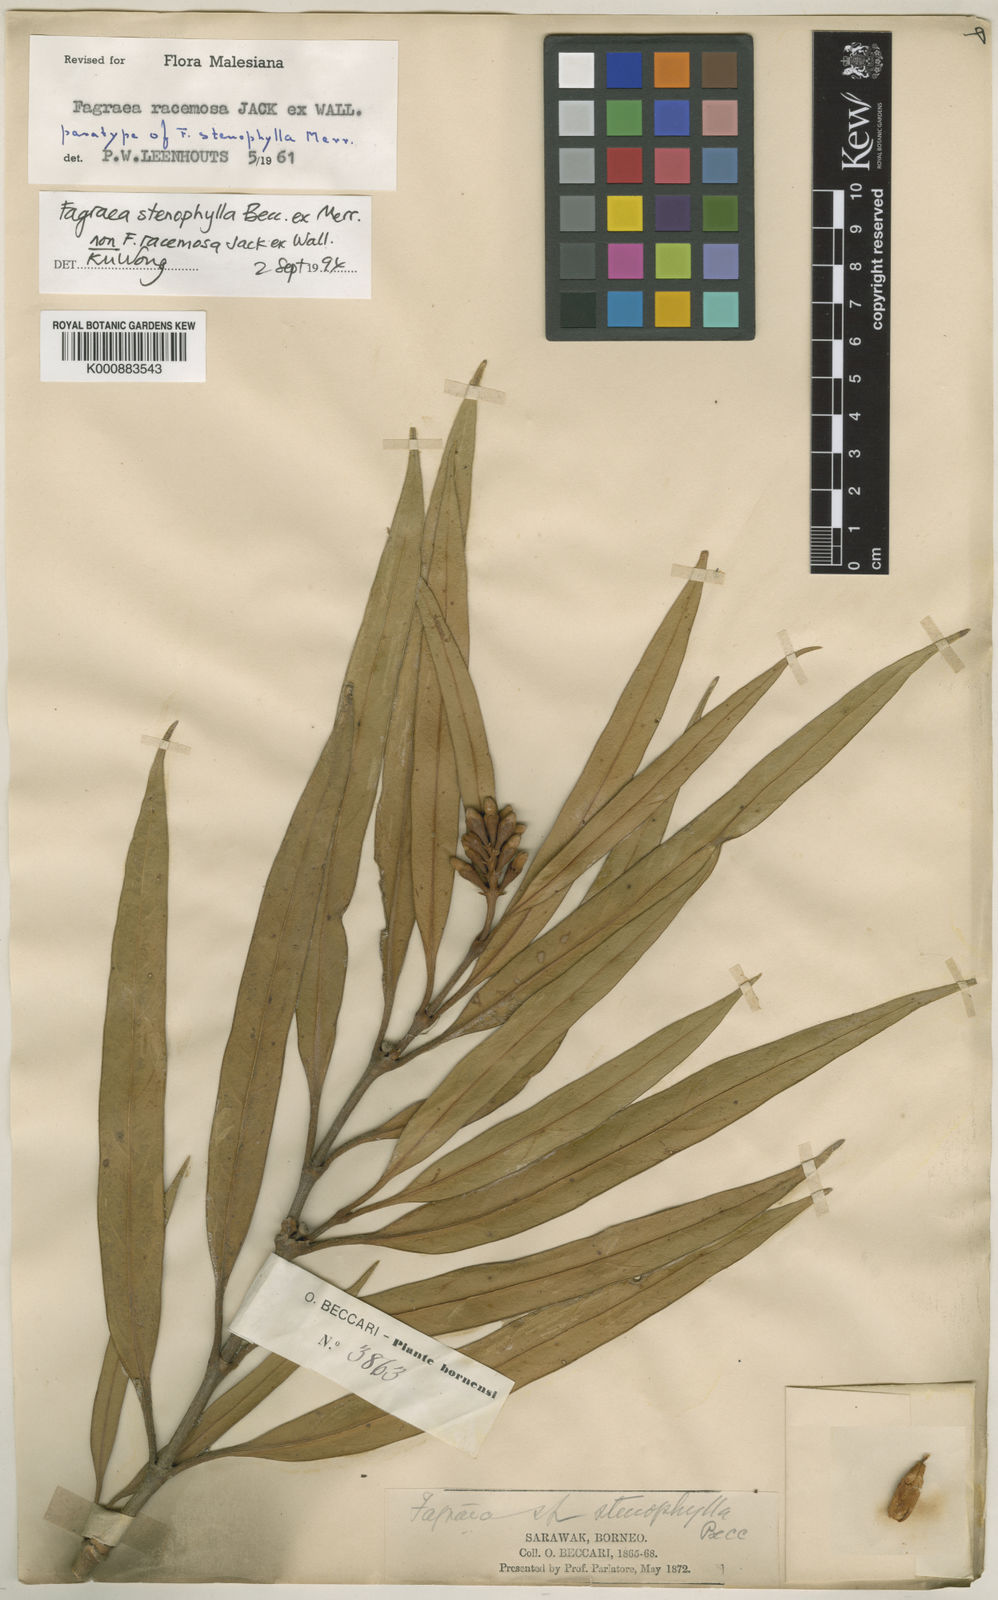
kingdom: Plantae
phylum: Tracheophyta
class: Magnoliopsida
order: Gentianales
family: Gentianaceae
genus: Fagraea
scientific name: Fagraea
